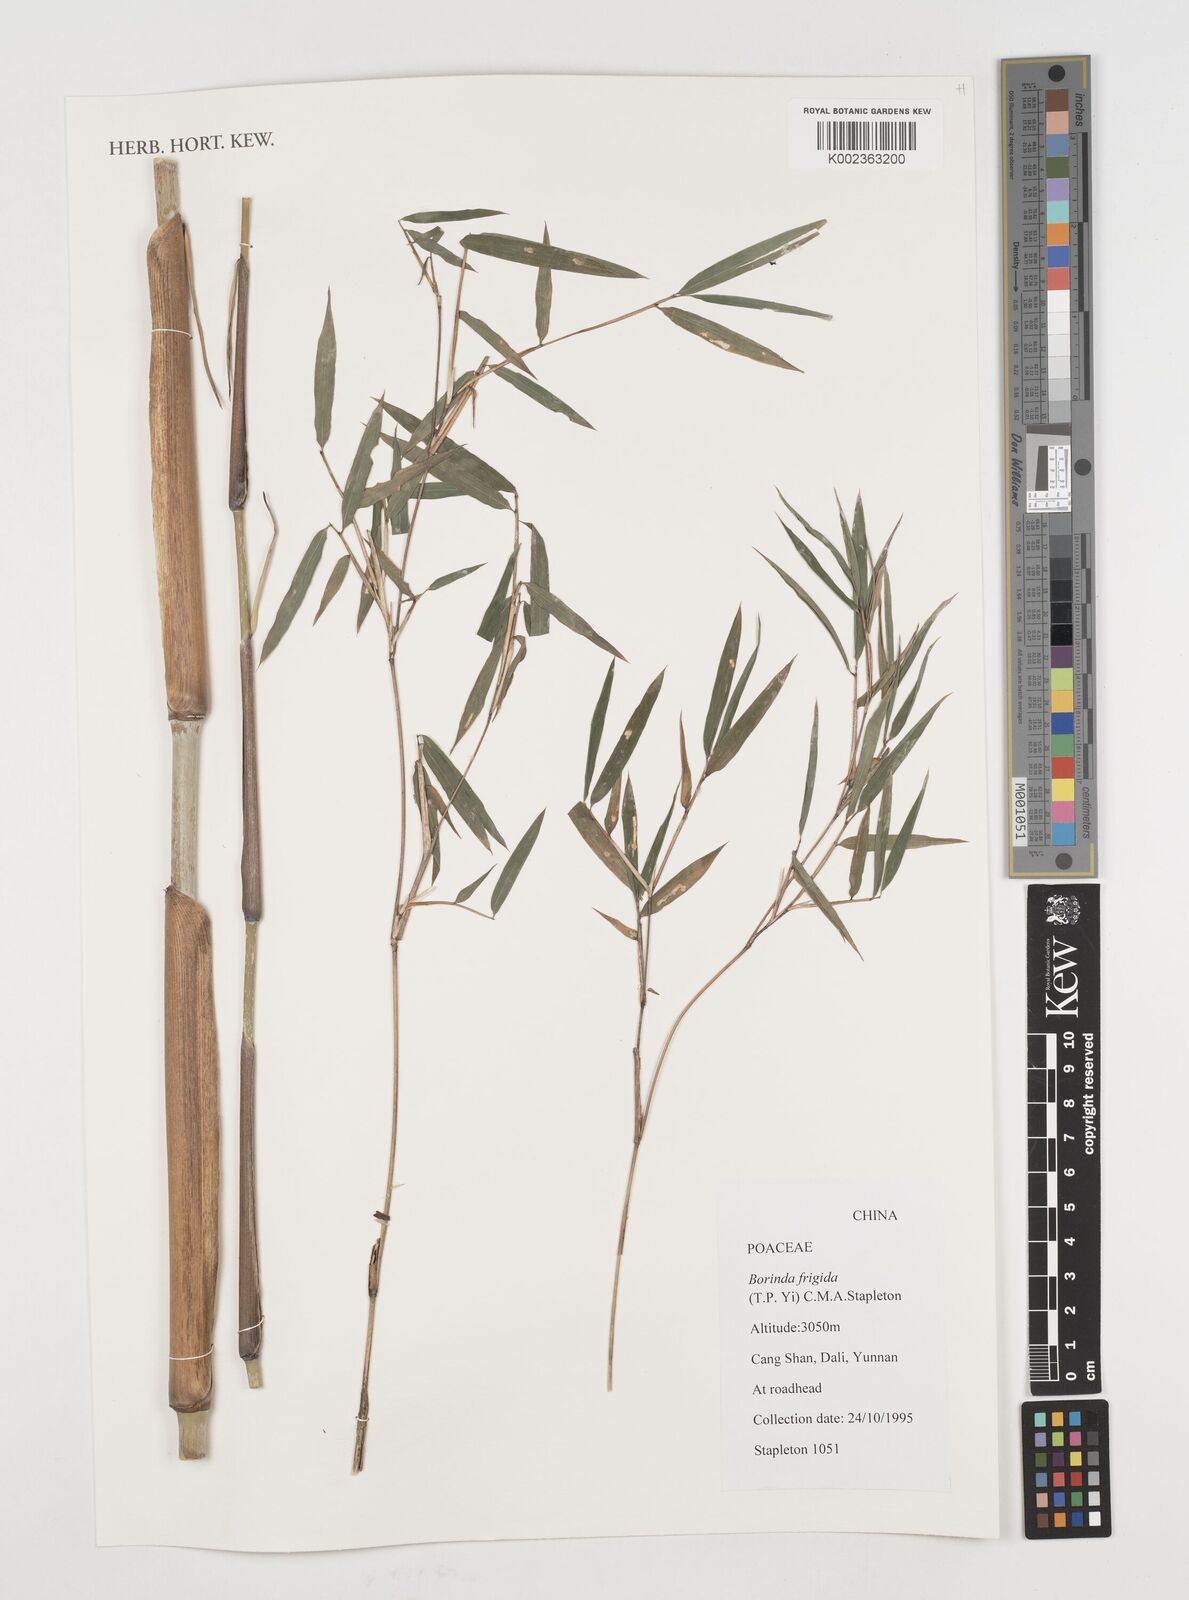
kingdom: Plantae
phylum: Tracheophyta
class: Liliopsida
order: Poales
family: Poaceae
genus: Fargesia
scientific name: Fargesia
